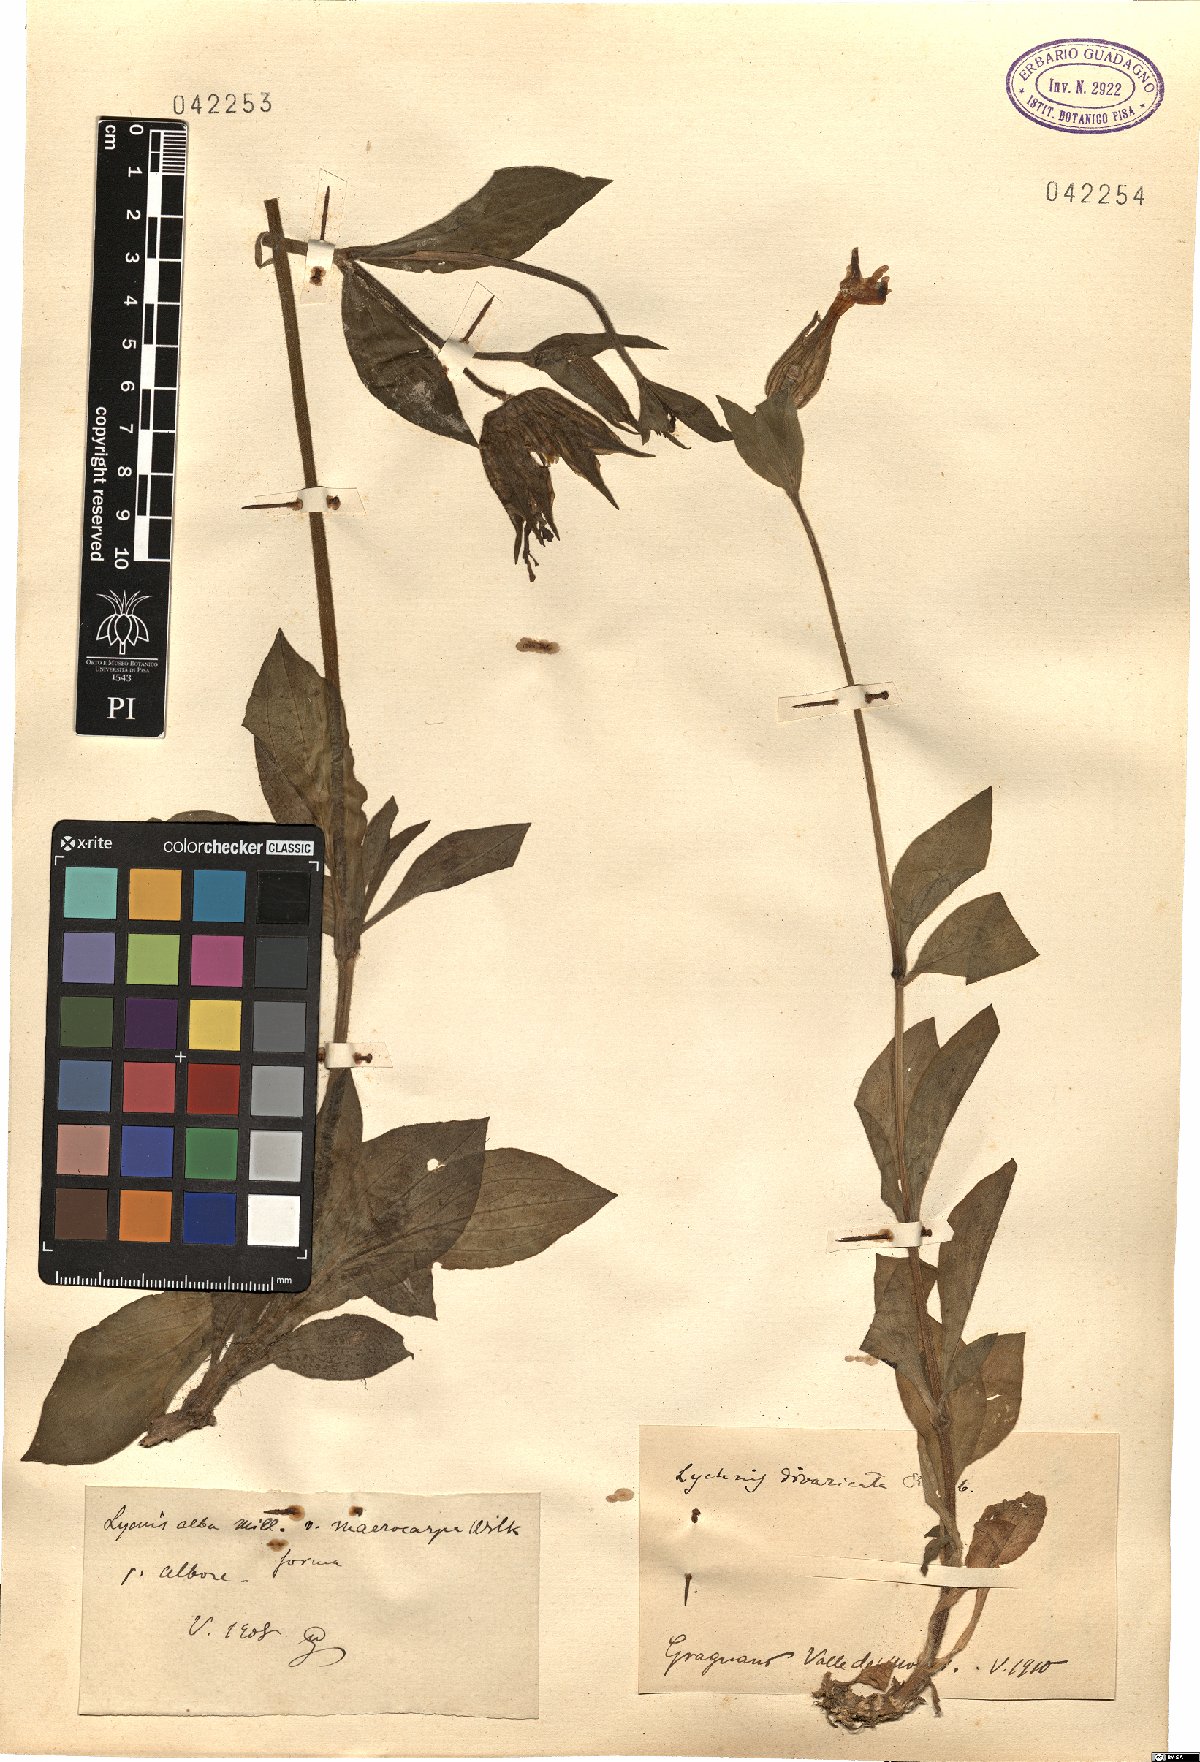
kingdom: Plantae
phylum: Tracheophyta
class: Magnoliopsida
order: Caryophyllales
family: Caryophyllaceae
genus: Silene
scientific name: Silene latifolia
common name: White campion
